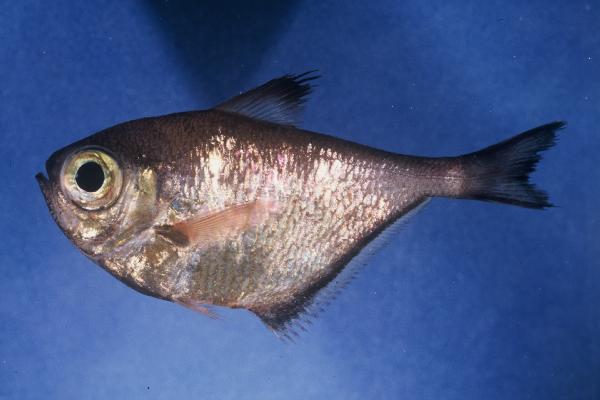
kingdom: Animalia
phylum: Chordata
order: Perciformes
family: Pempheridae
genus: Pempheris
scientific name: Pempheris connelli
